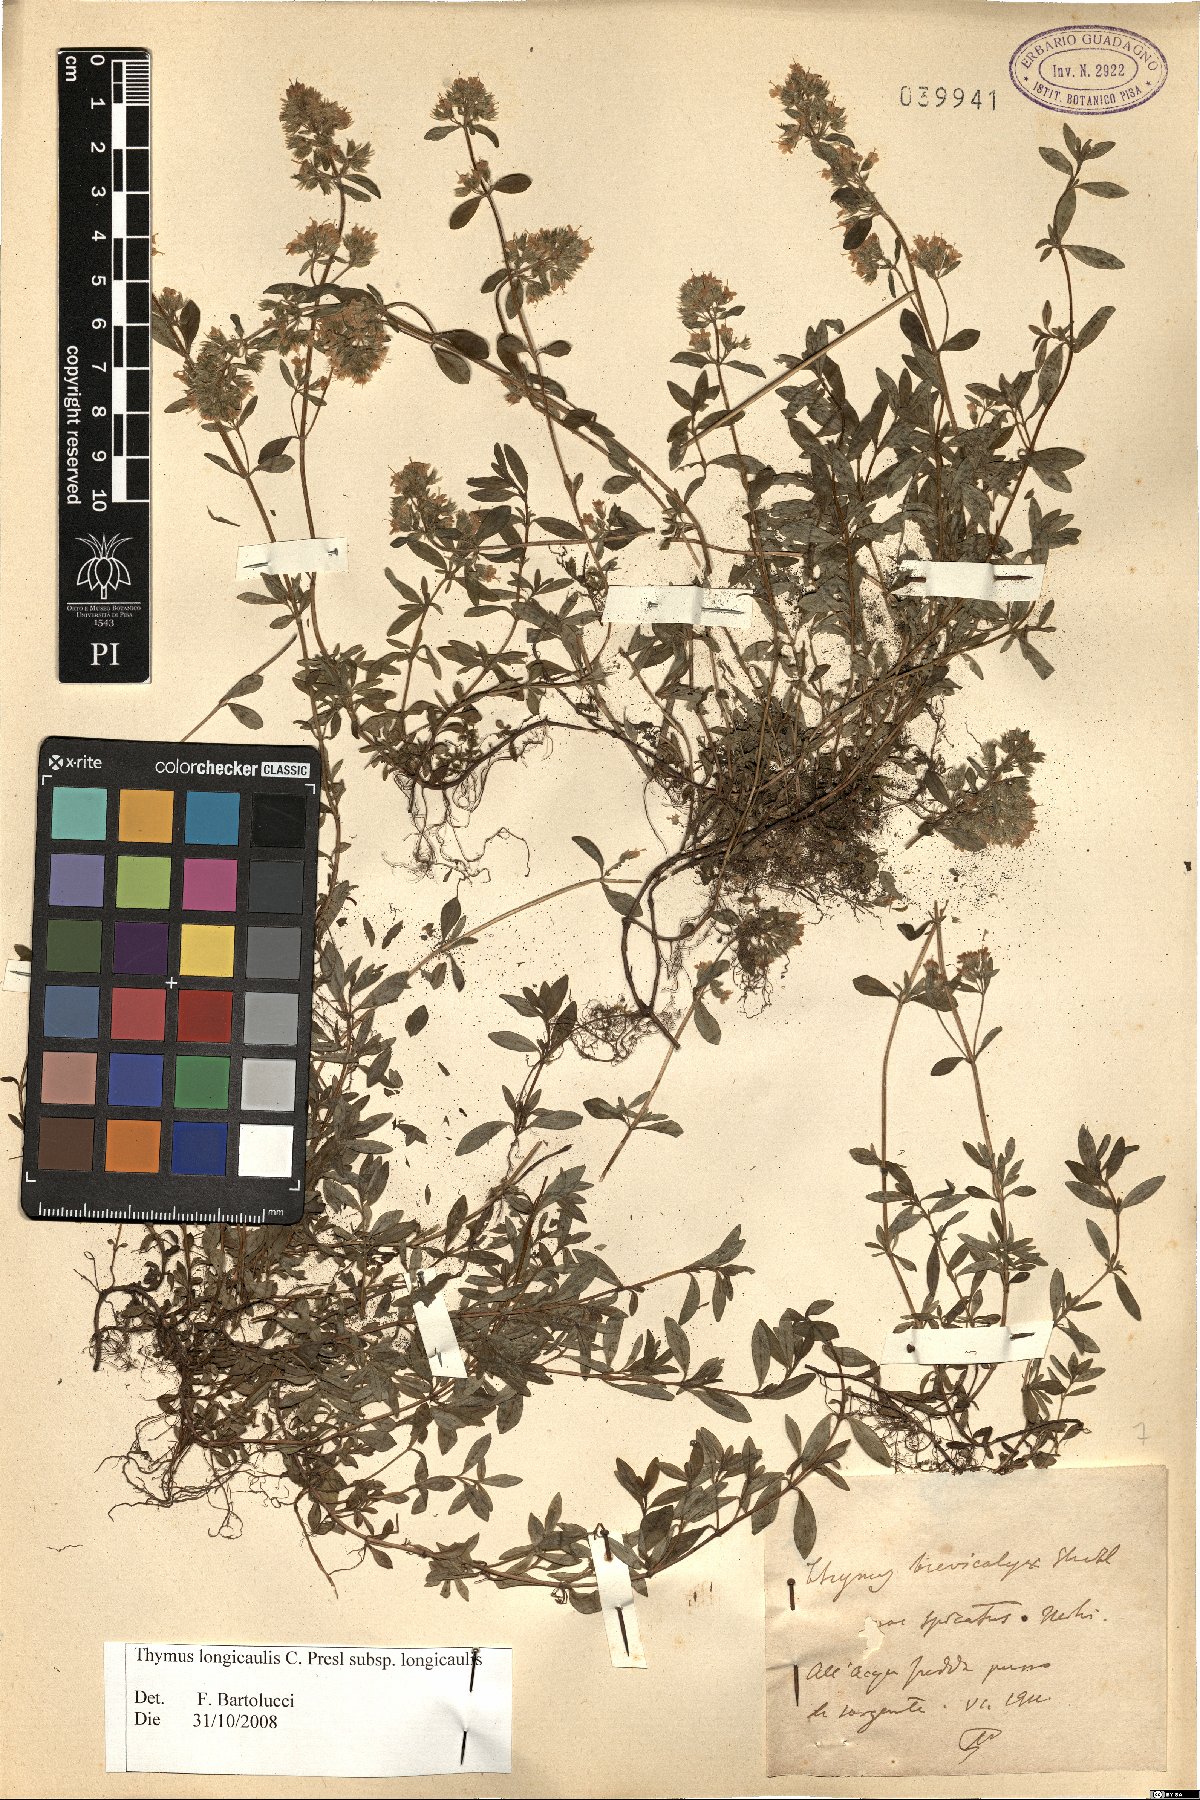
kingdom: Plantae
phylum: Tracheophyta
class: Magnoliopsida
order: Lamiales
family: Lamiaceae
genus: Thymus
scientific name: Thymus longicaulis
